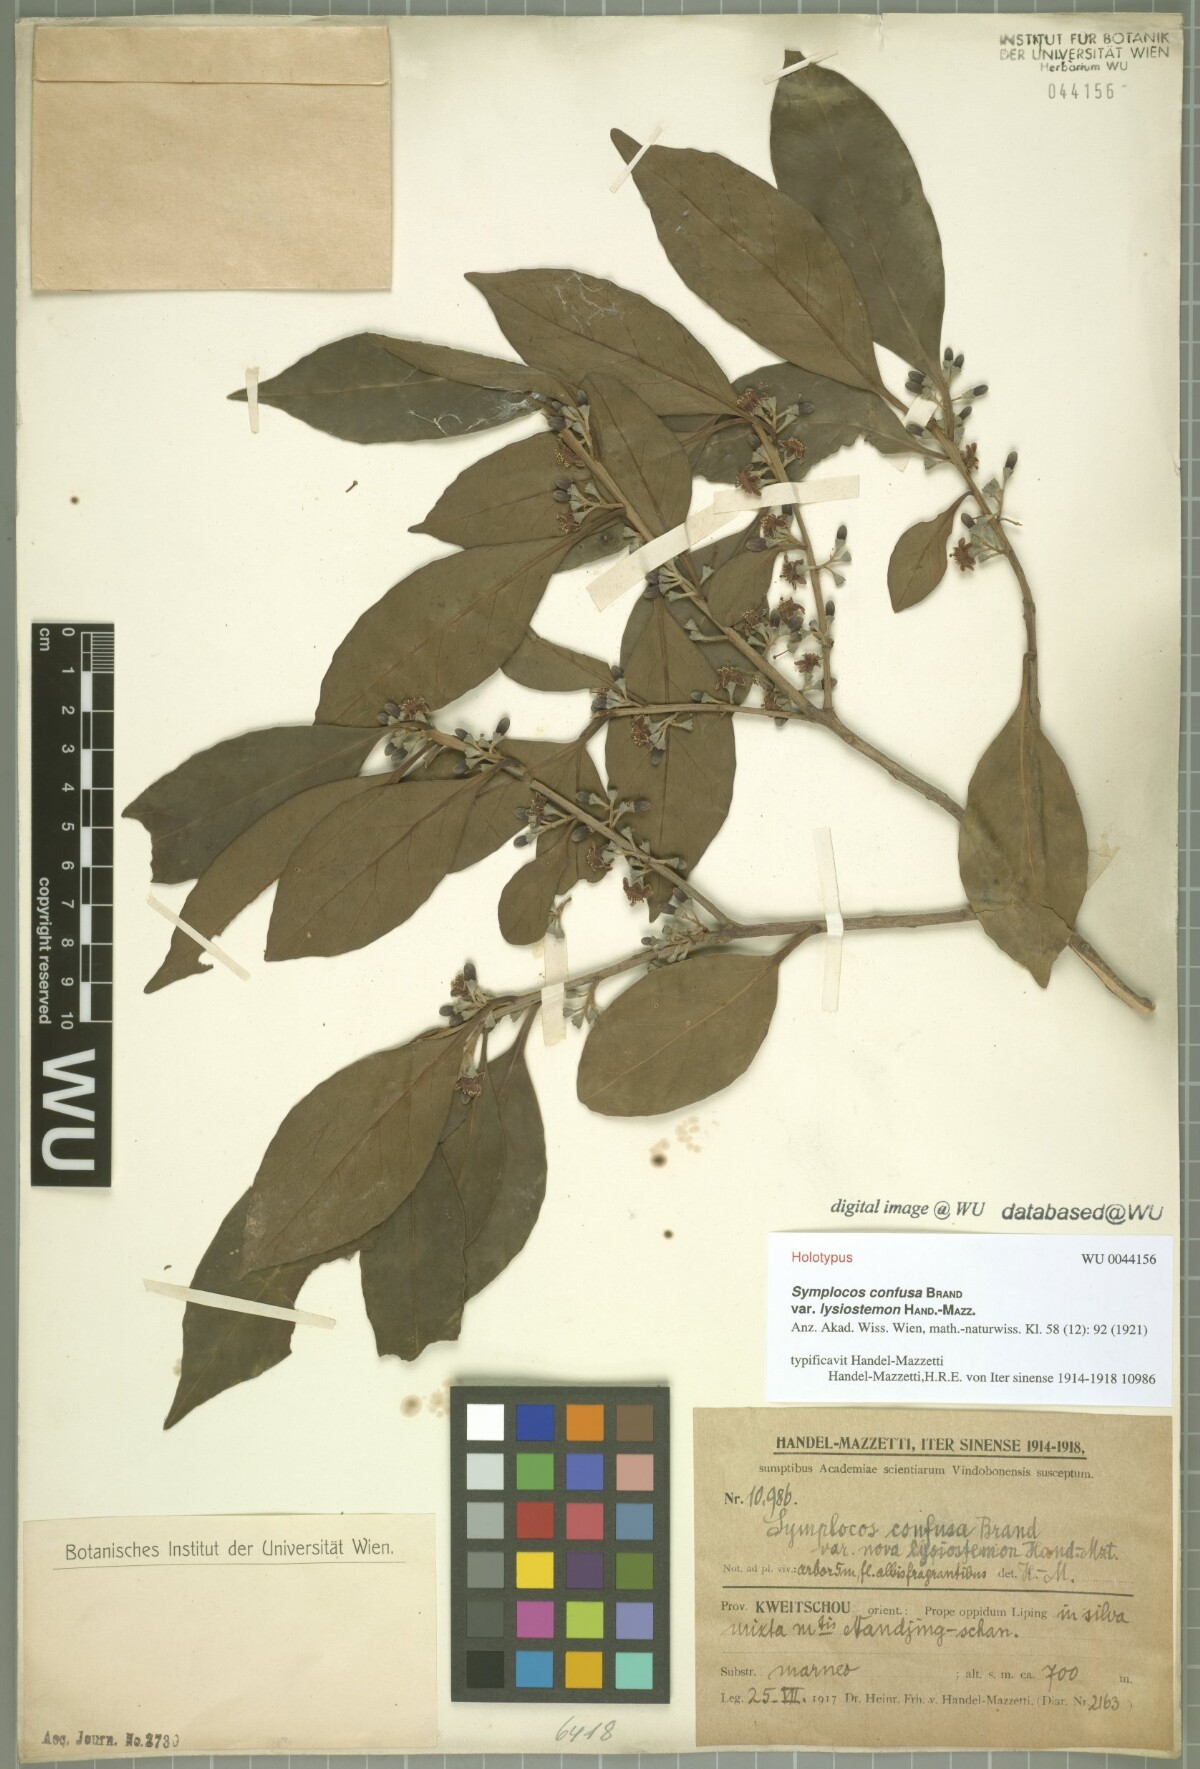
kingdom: Plantae
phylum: Tracheophyta
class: Magnoliopsida
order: Ericales
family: Symplocaceae
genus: Symplocos
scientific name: Symplocos pendula
